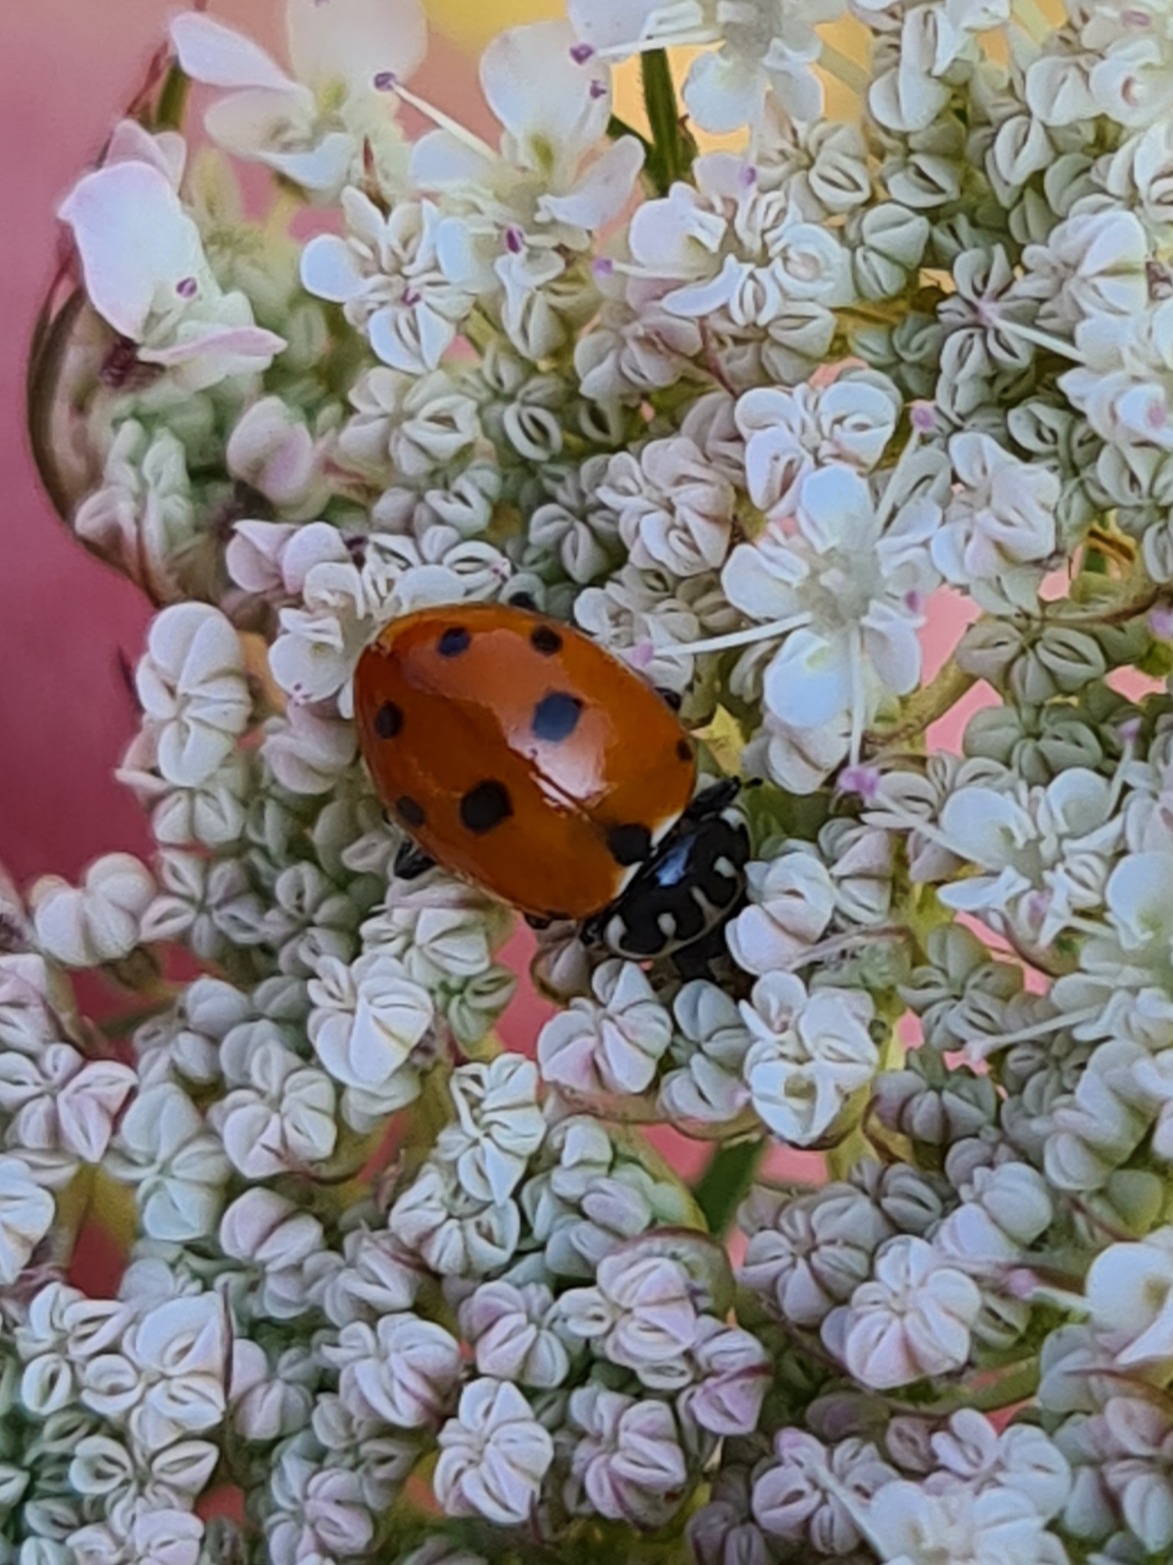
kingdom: Animalia
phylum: Arthropoda
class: Insecta
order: Coleoptera
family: Coccinellidae
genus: Hippodamia
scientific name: Hippodamia variegata
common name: Adonis' mariehøne
